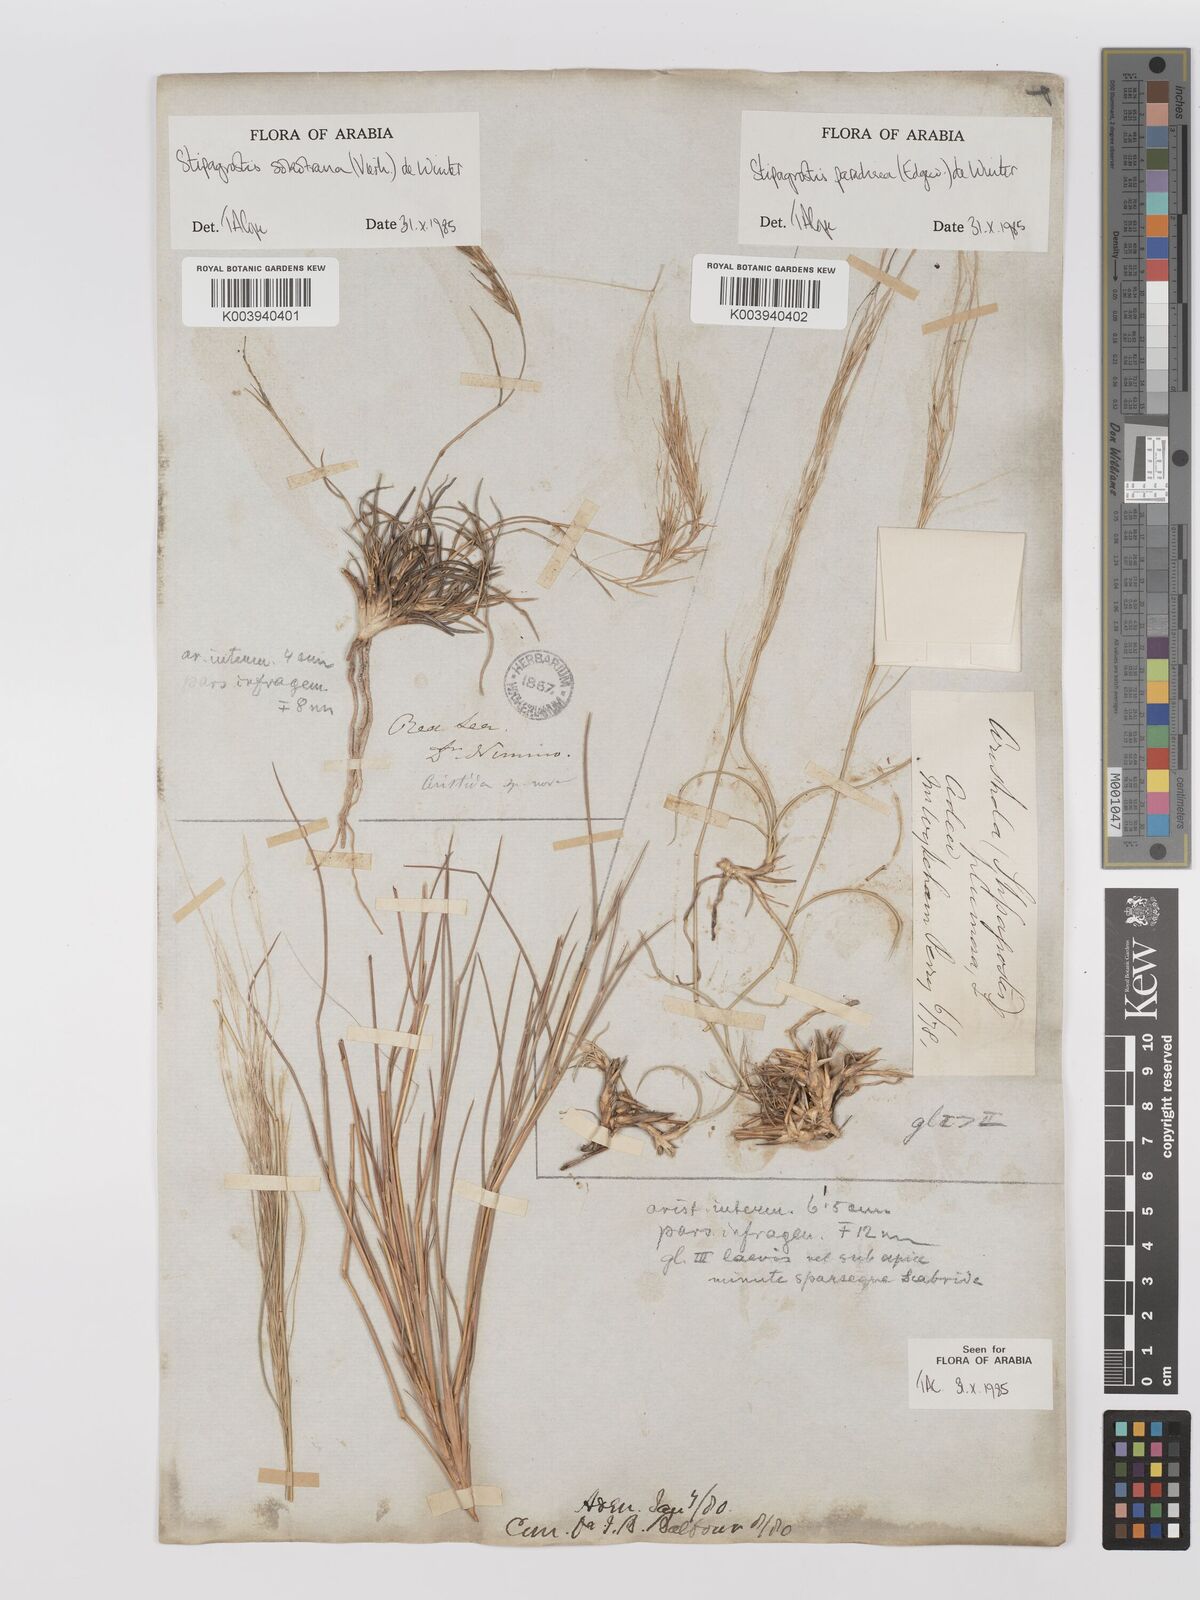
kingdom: Plantae
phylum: Tracheophyta
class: Liliopsida
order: Poales
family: Poaceae
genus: Stipagrostis
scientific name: Stipagrostis paradisea
